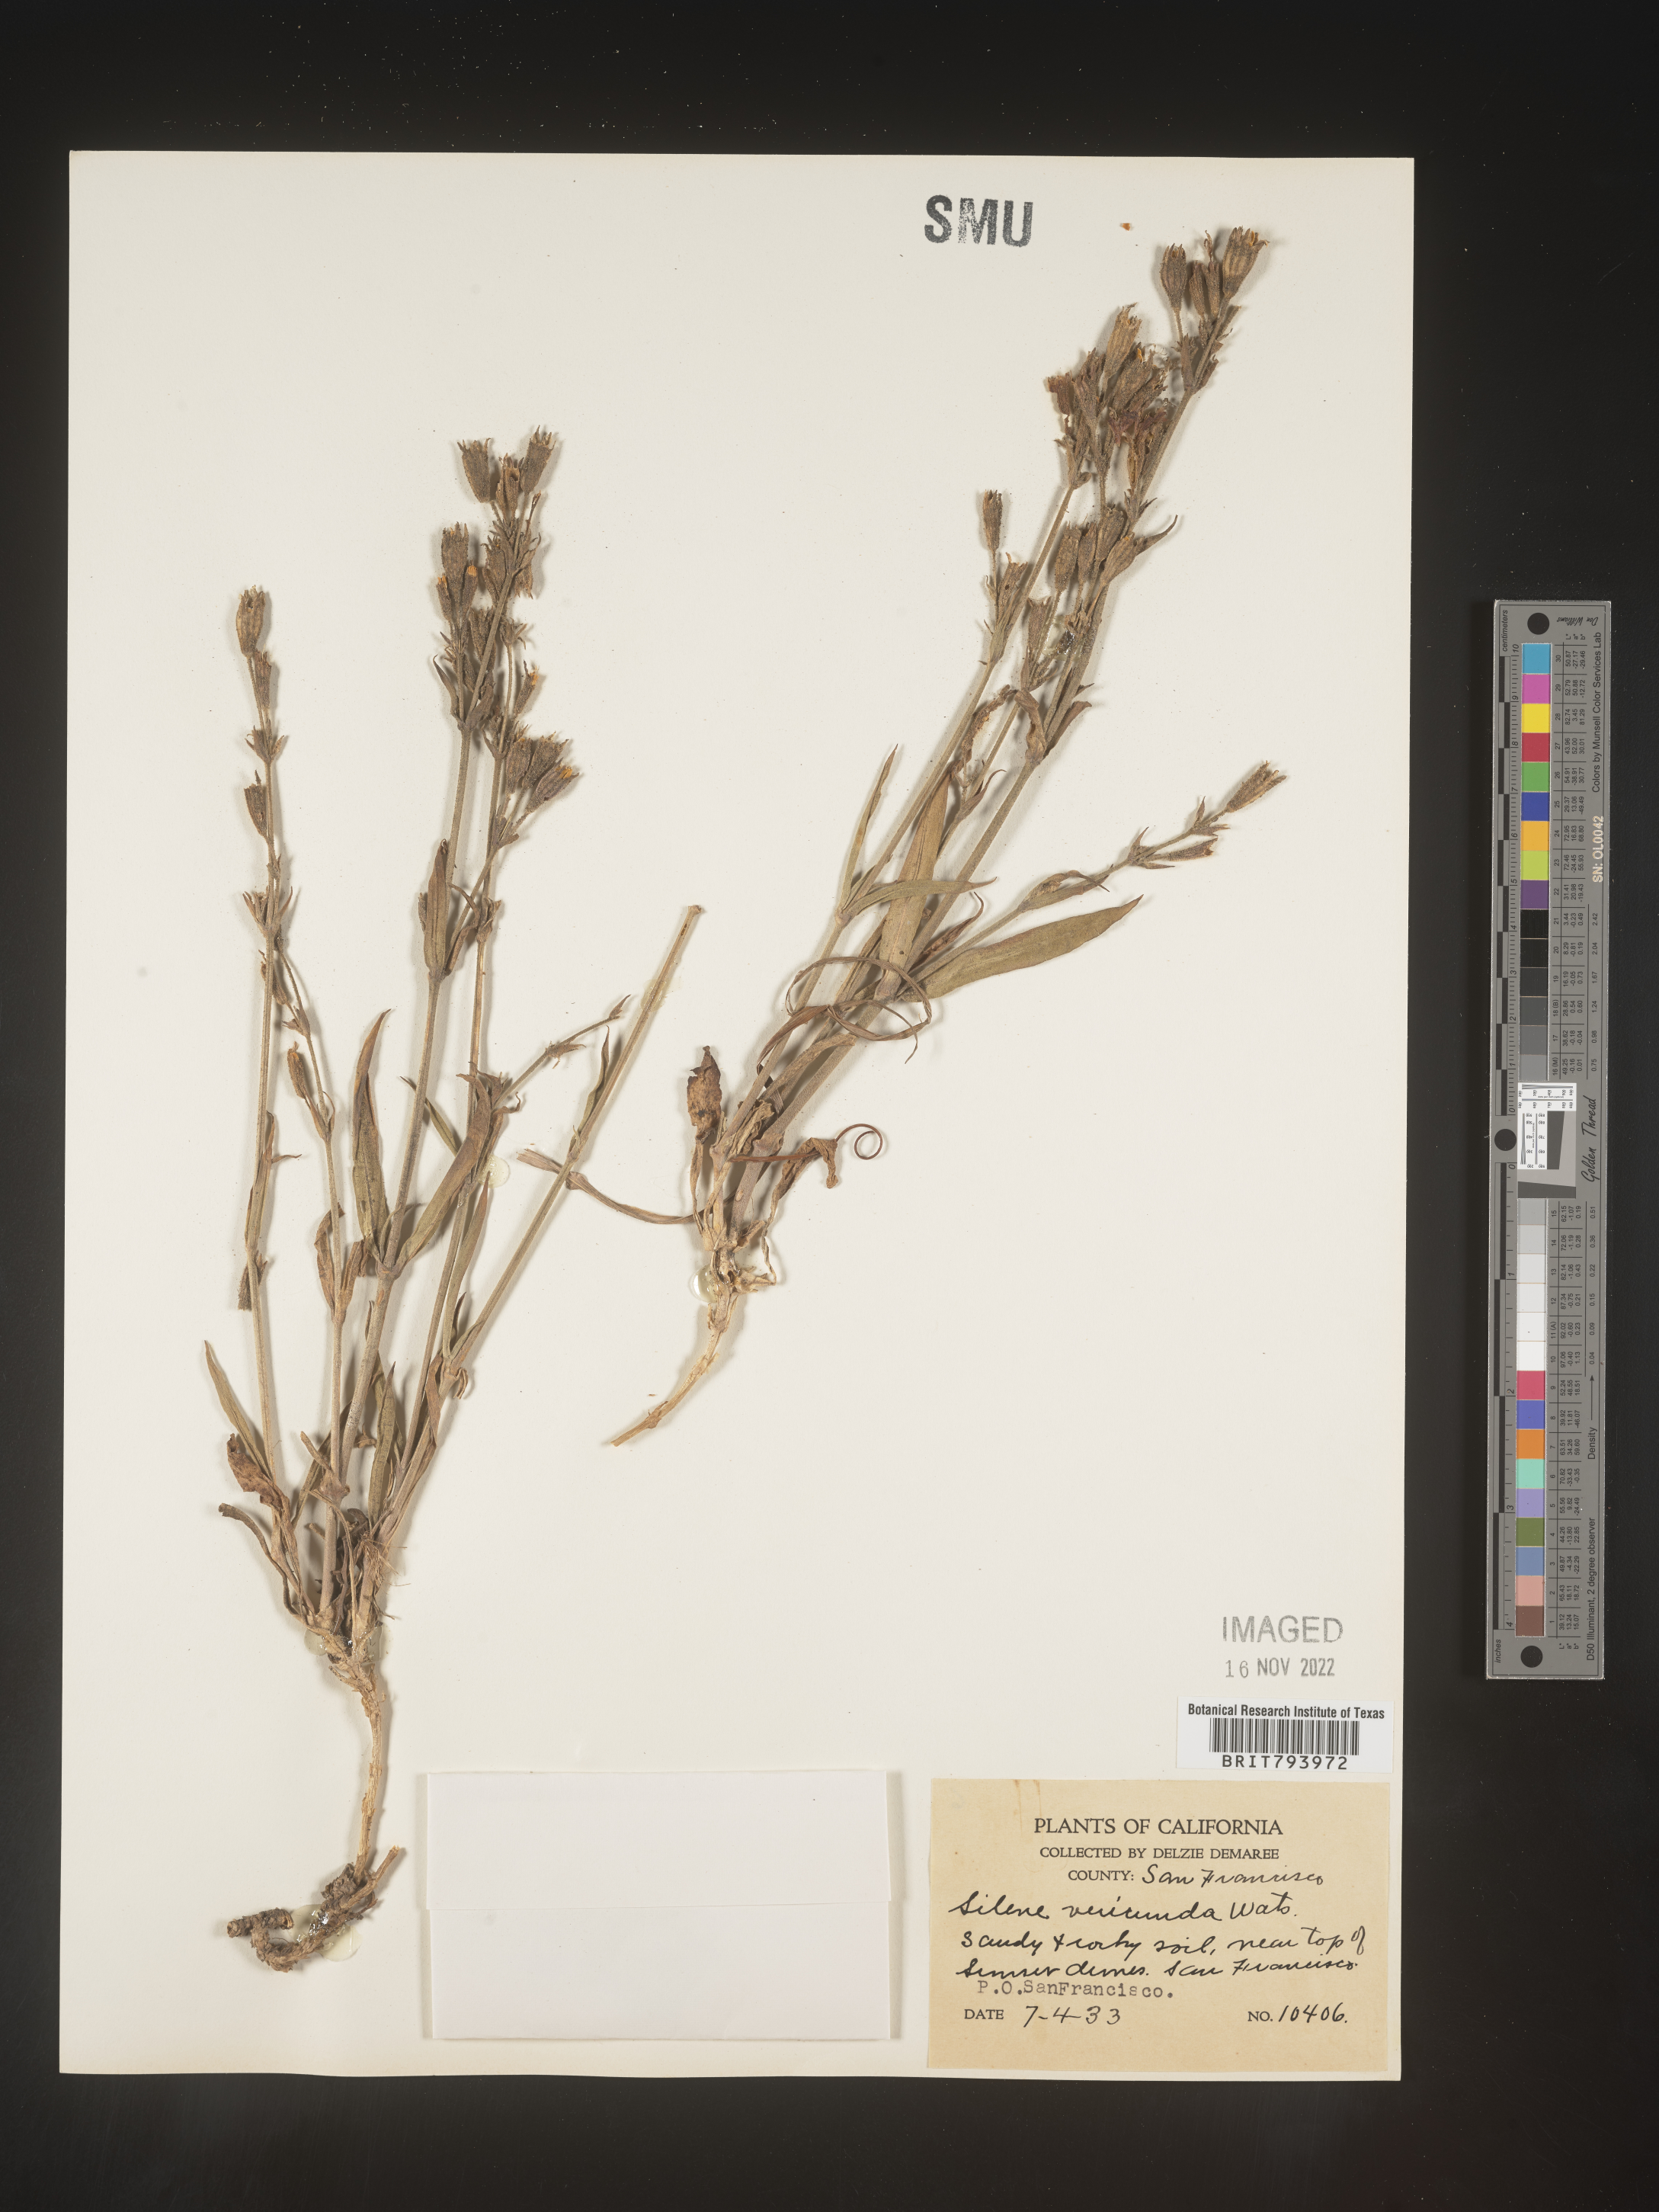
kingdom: Plantae
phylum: Tracheophyta
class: Magnoliopsida
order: Caryophyllales
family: Caryophyllaceae
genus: Silene
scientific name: Silene verecunda
